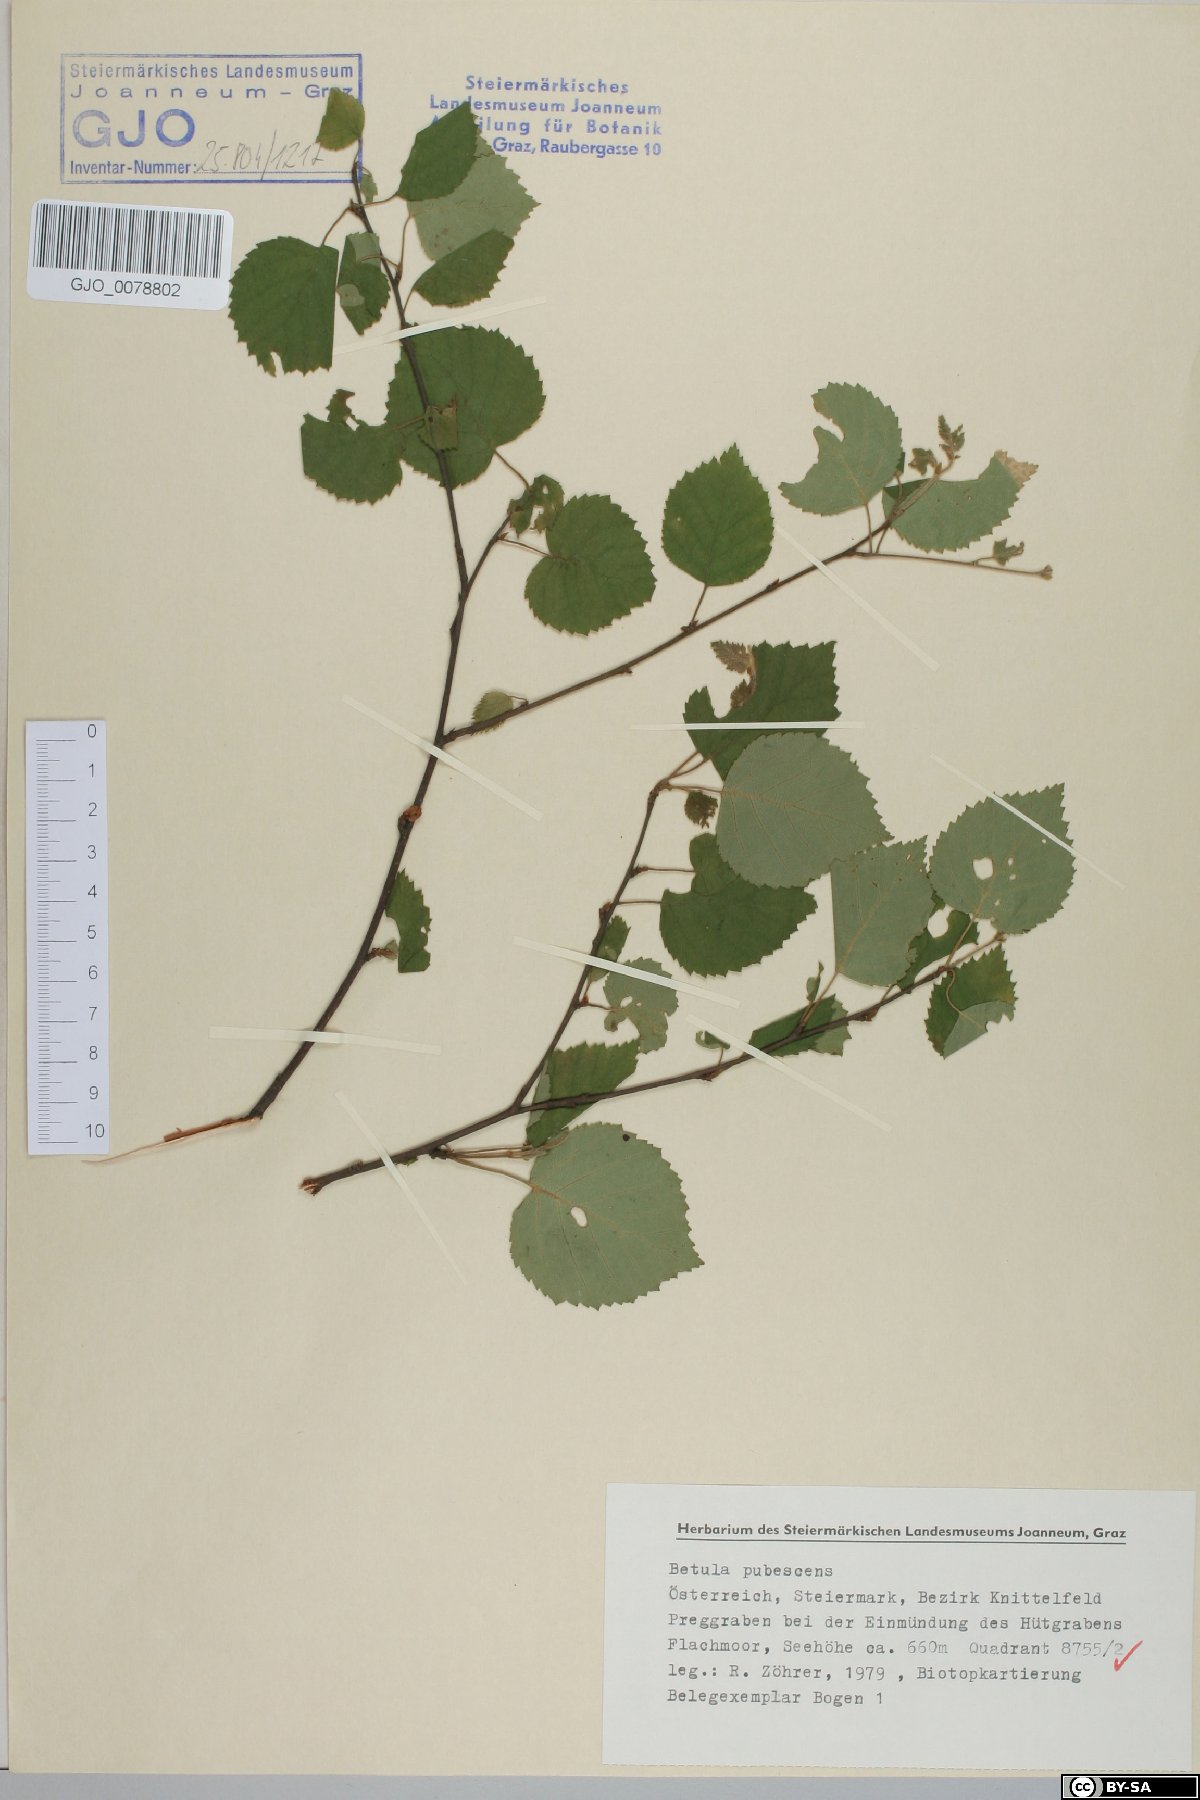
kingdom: Plantae
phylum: Tracheophyta
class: Magnoliopsida
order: Fagales
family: Betulaceae
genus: Betula
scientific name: Betula pubescens
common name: Downy birch
